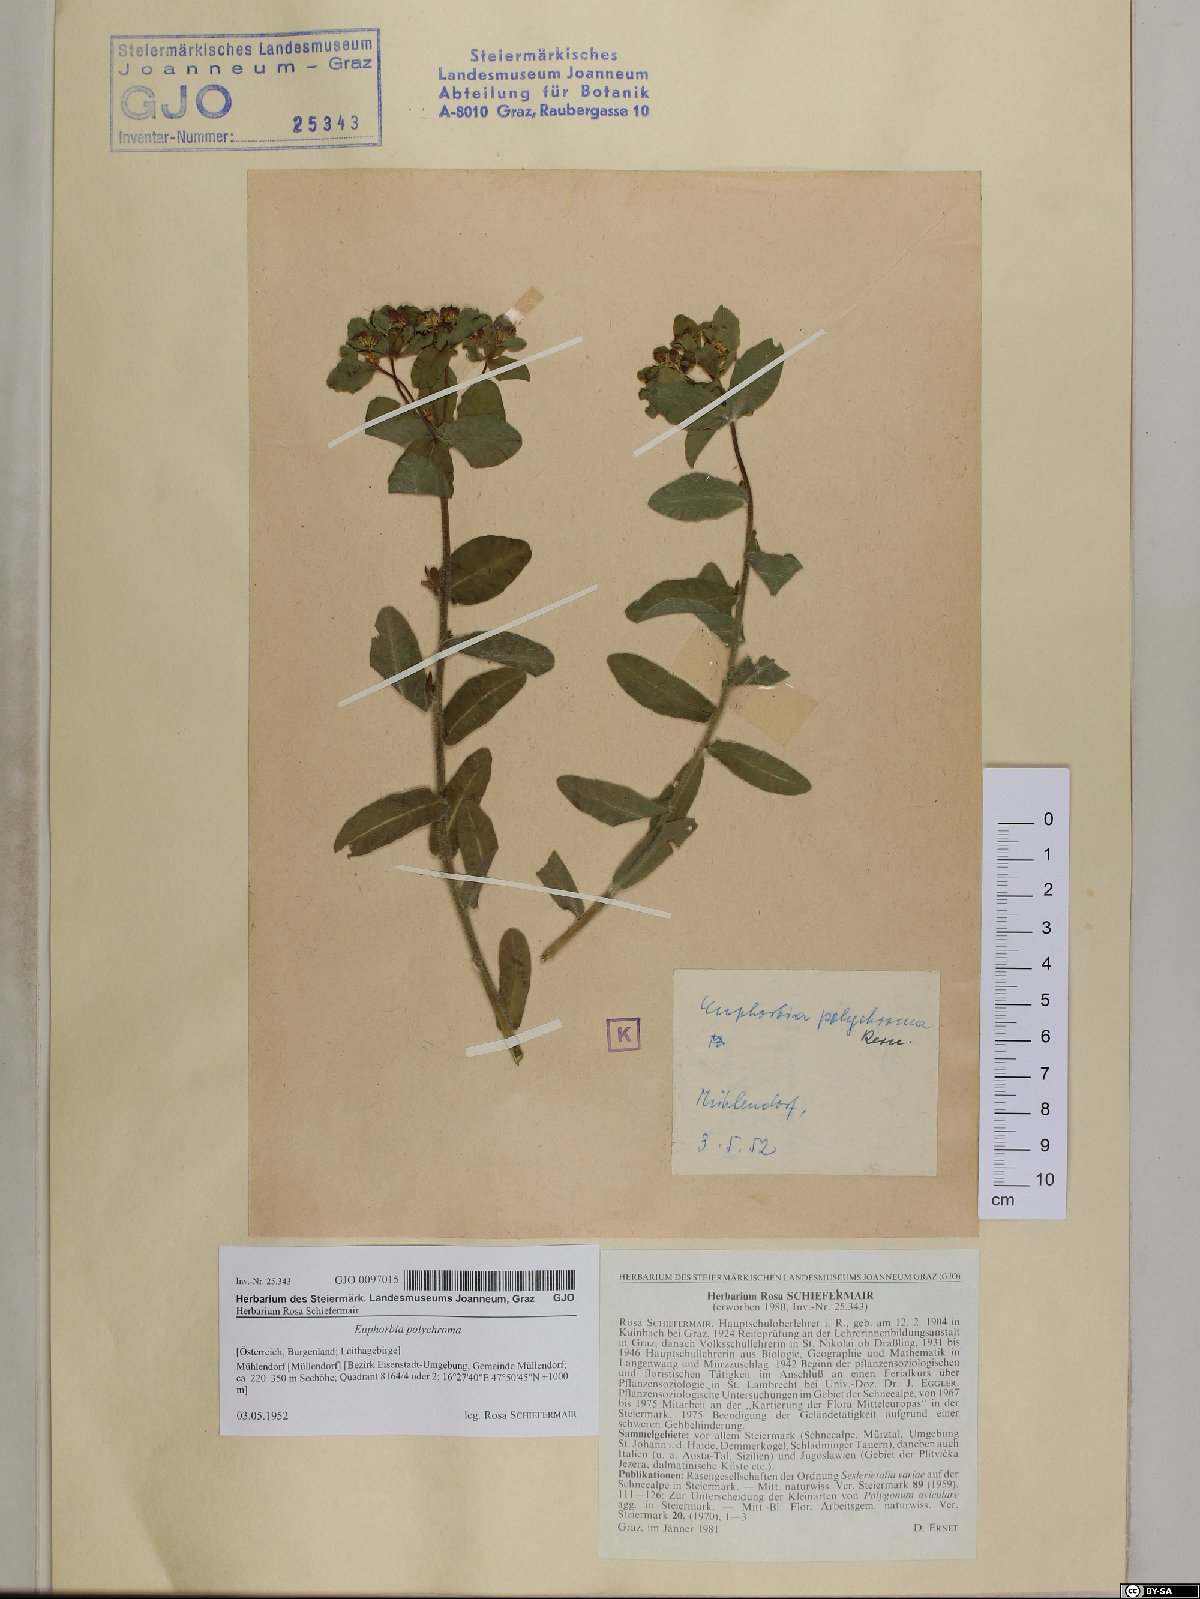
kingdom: Plantae
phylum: Tracheophyta
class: Magnoliopsida
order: Malpighiales
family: Euphorbiaceae
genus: Euphorbia
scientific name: Euphorbia epithymoides
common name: Cushion spurge
